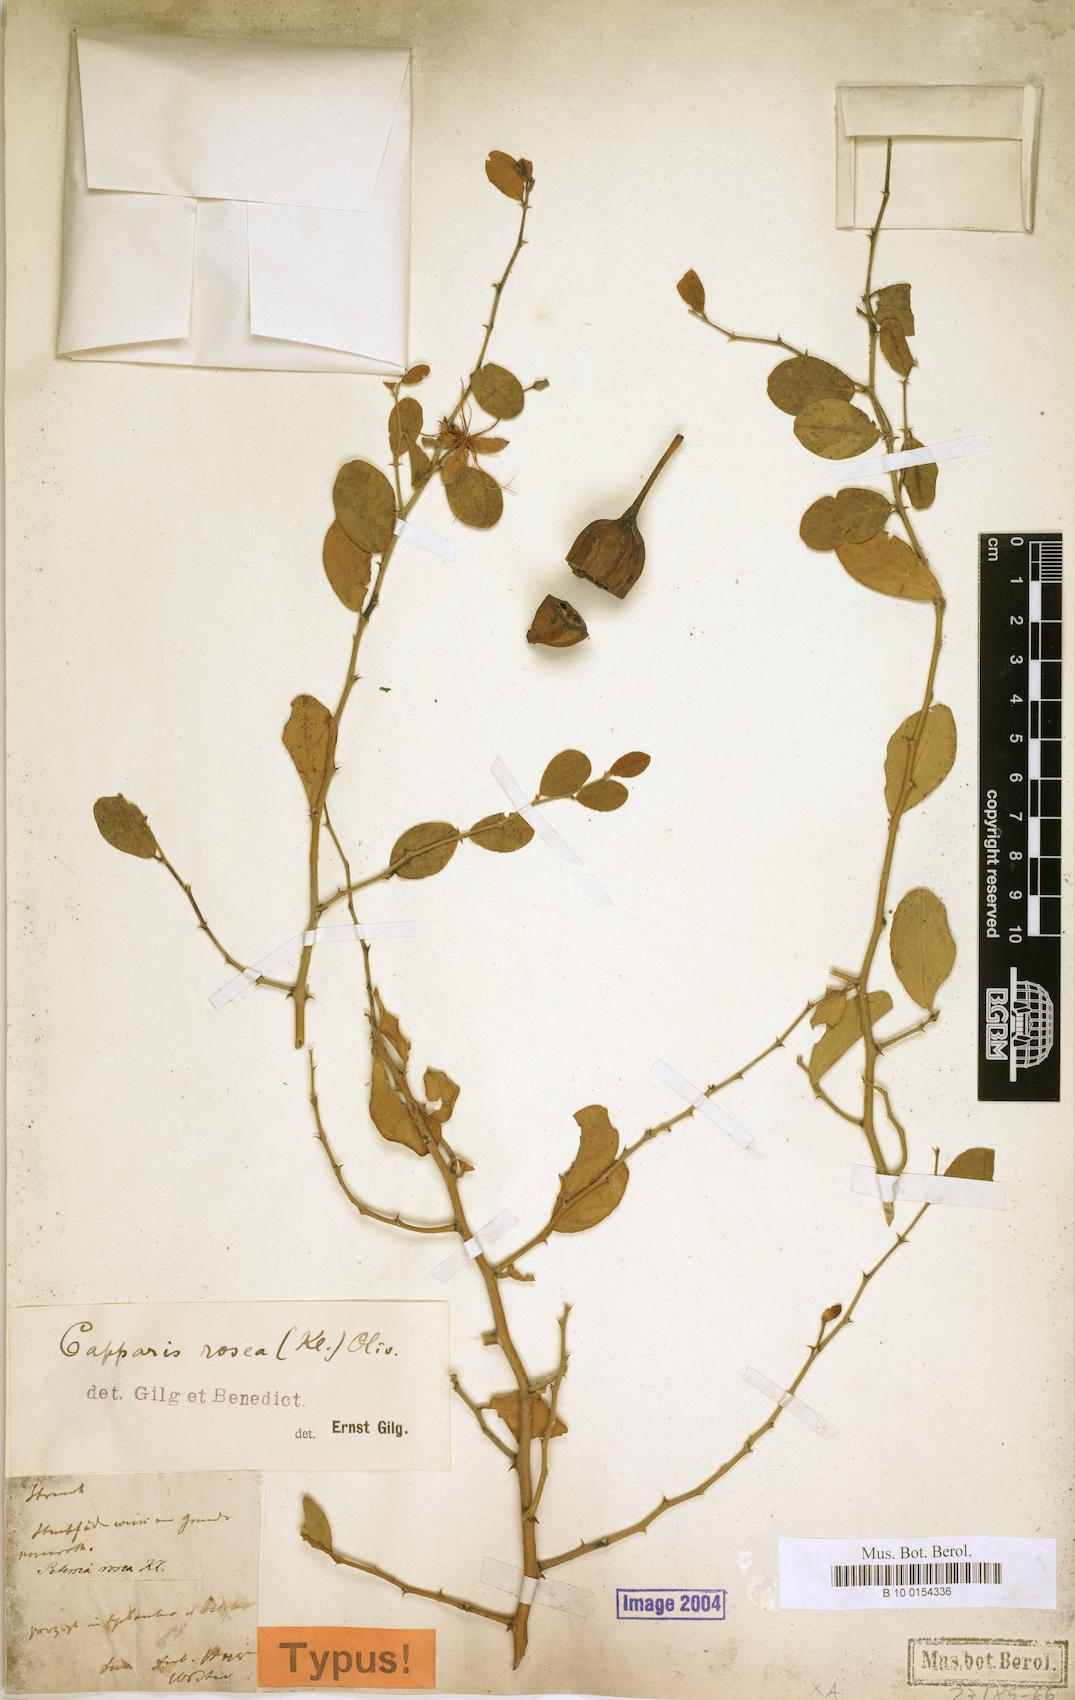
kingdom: Plantae
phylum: Tracheophyta
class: Magnoliopsida
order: Brassicales
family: Capparaceae
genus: Capparis
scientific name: Capparis erythrocarpos
